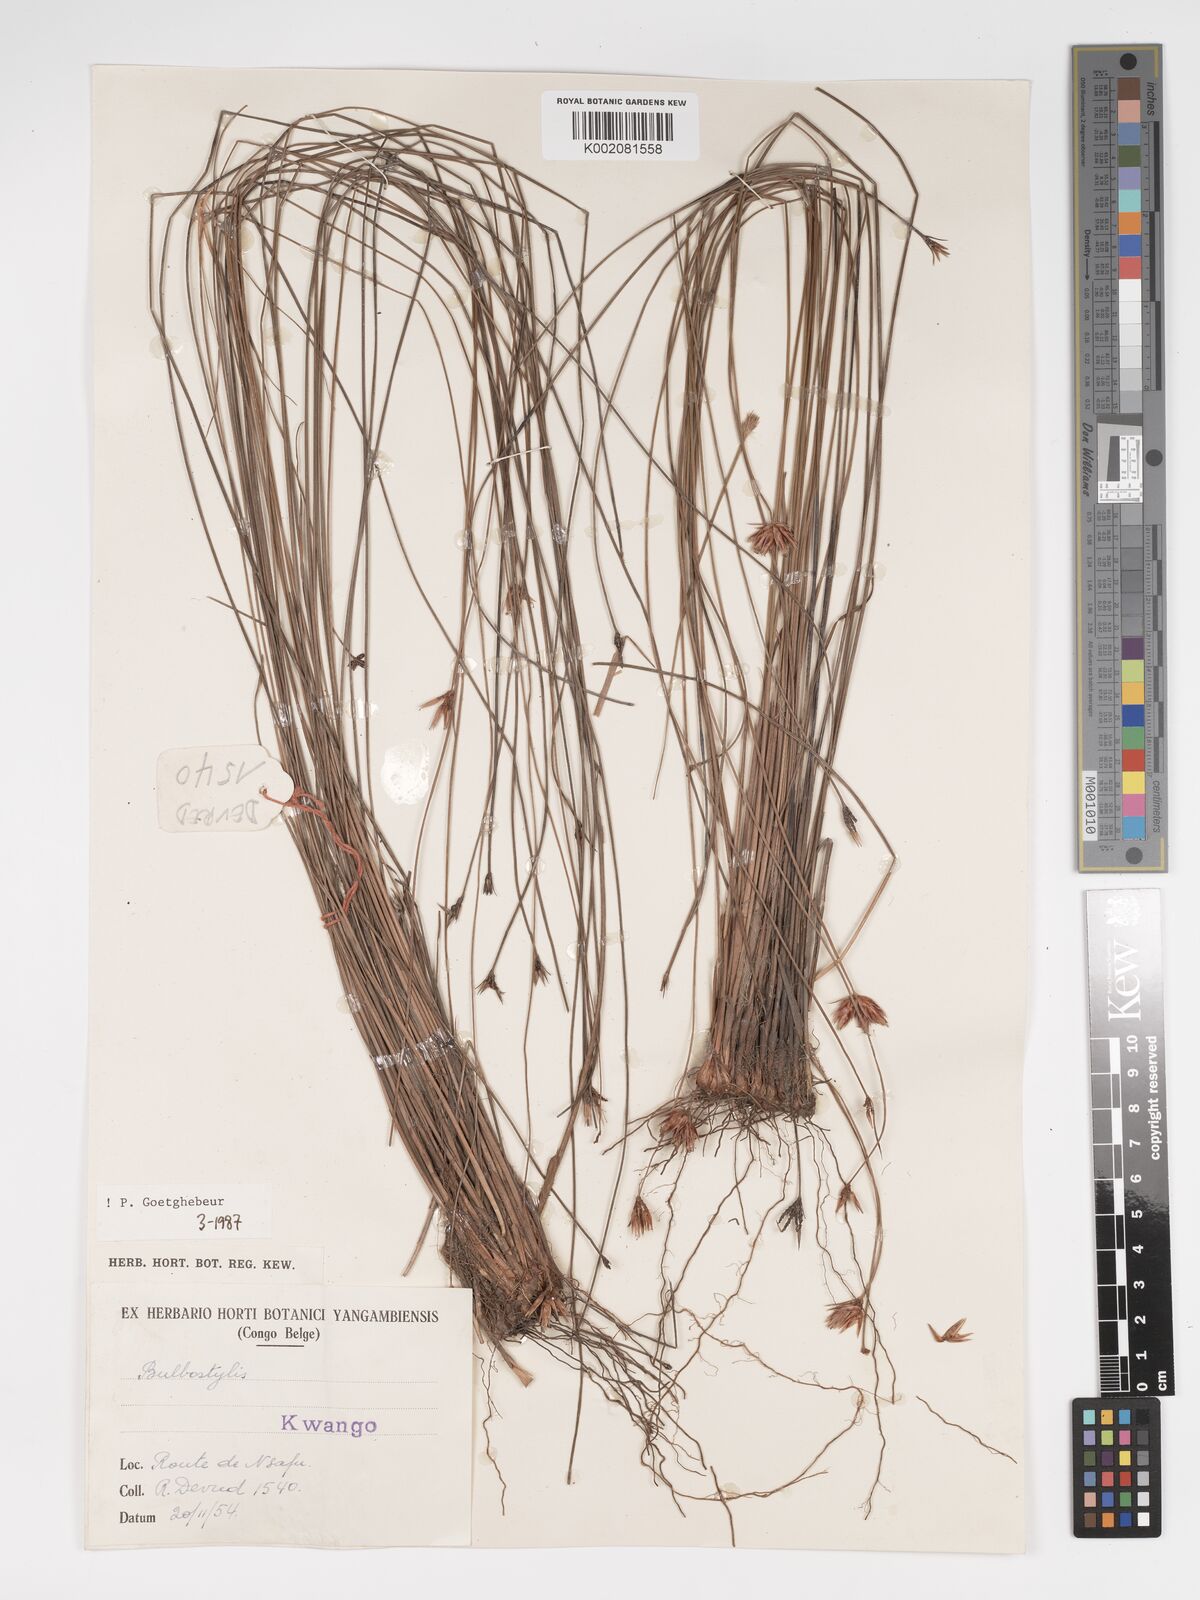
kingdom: Plantae
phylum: Tracheophyta
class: Liliopsida
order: Poales
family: Cyperaceae
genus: Bulbostylis
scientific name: Bulbostylis pilosa
